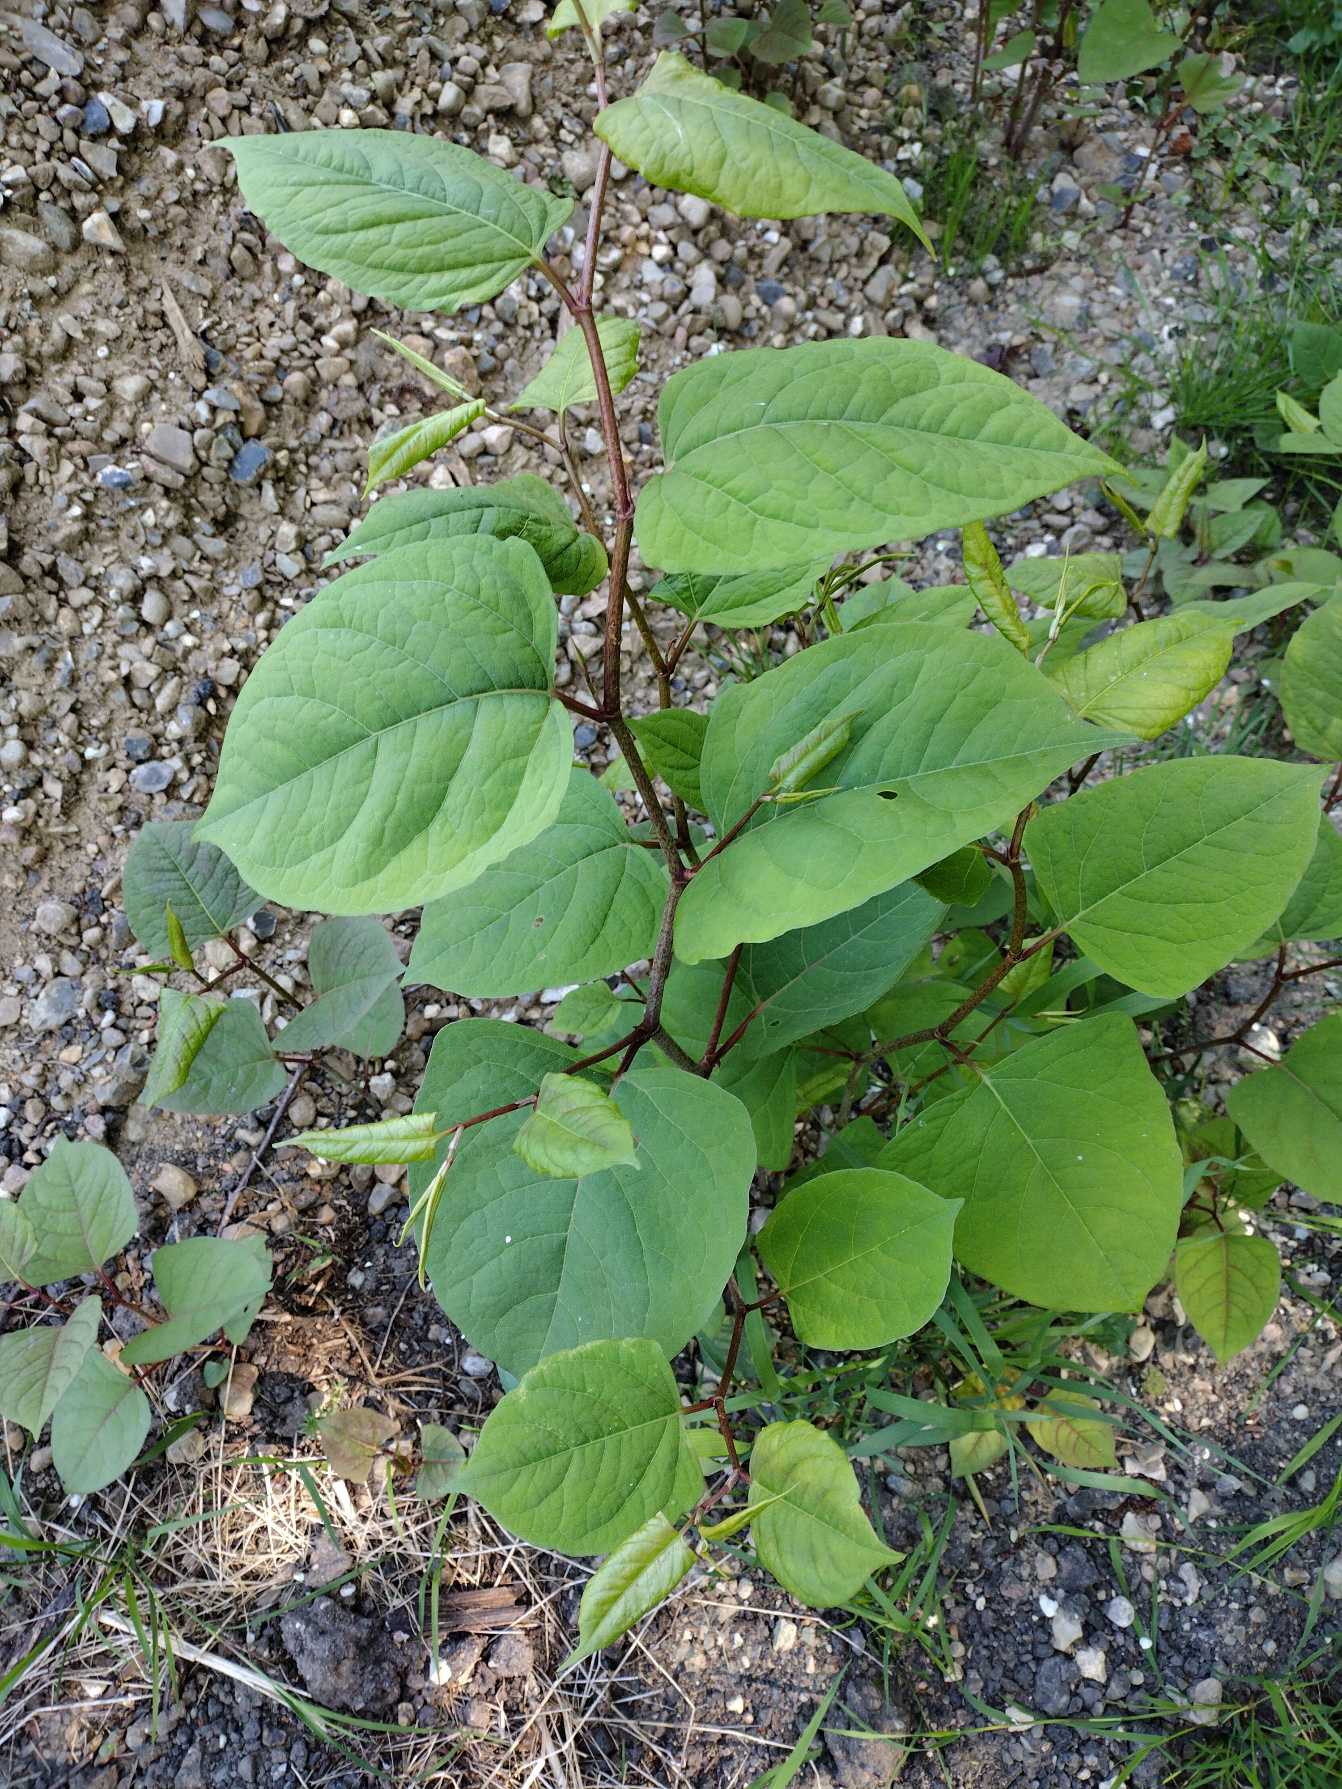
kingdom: Plantae
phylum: Tracheophyta
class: Magnoliopsida
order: Caryophyllales
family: Polygonaceae
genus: Reynoutria
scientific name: Reynoutria japonica
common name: Japan-pileurt
